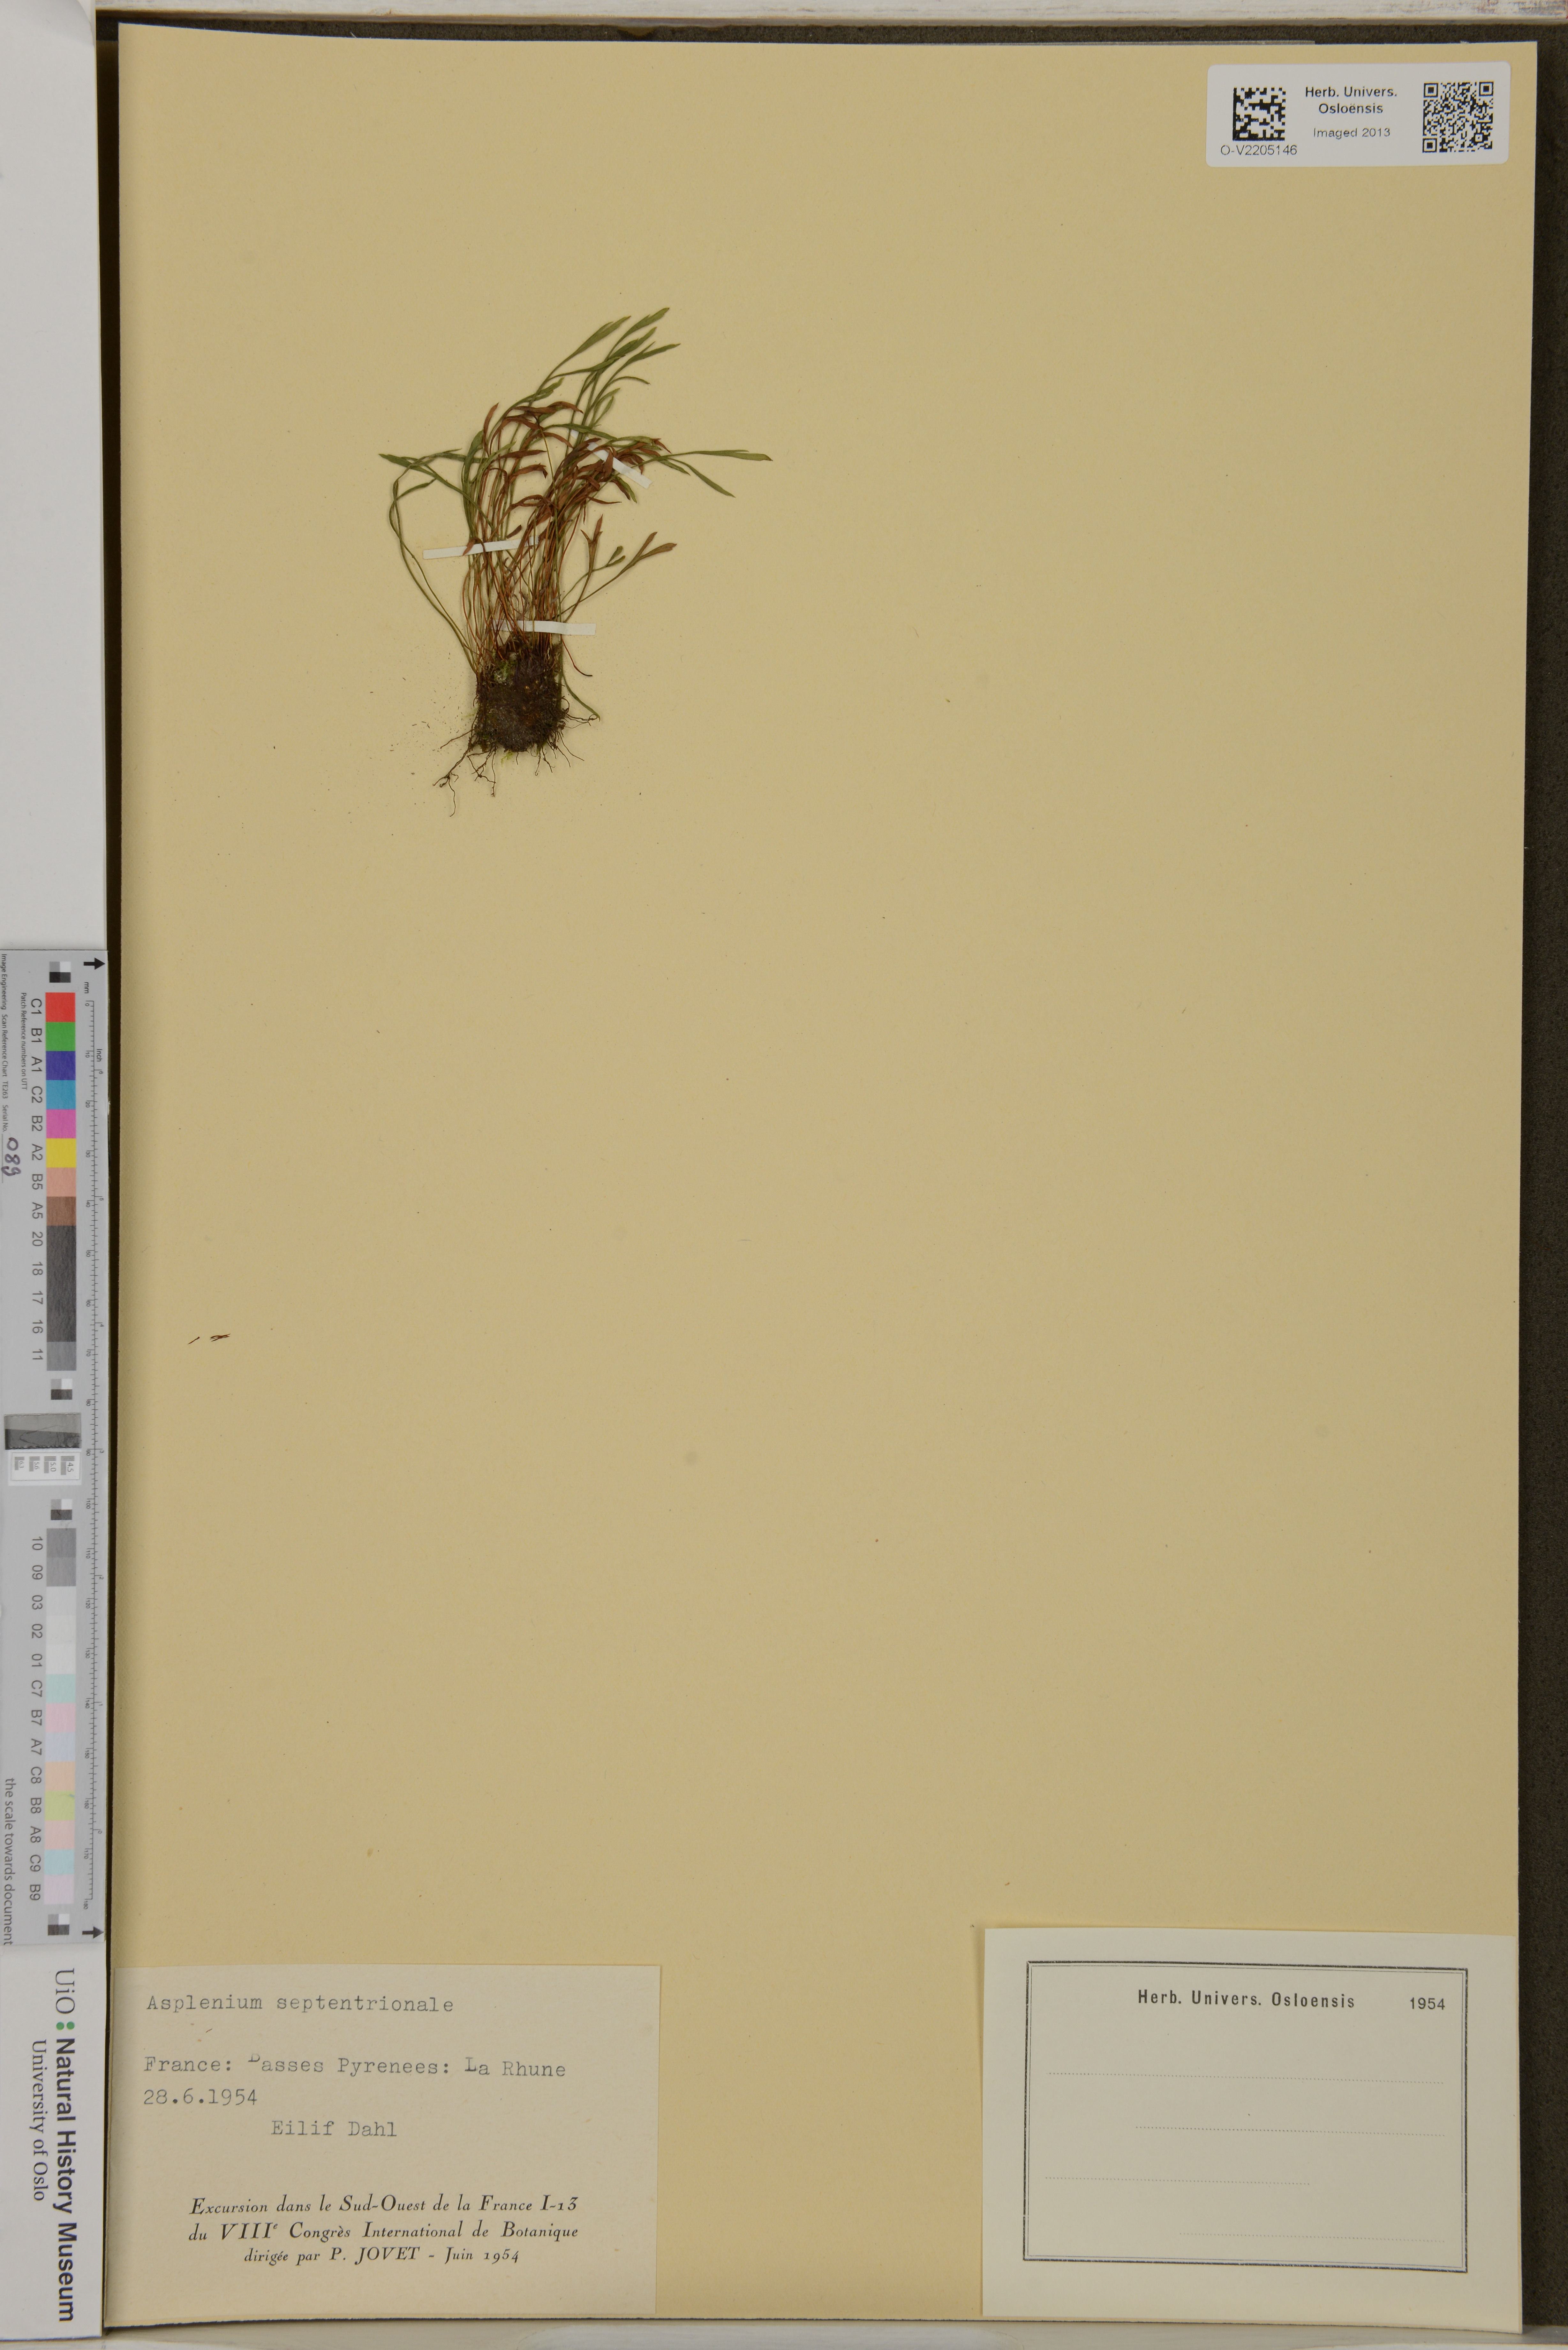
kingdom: Plantae
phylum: Tracheophyta
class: Polypodiopsida
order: Polypodiales
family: Aspleniaceae
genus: Asplenium
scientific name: Asplenium septentrionale
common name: Forked spleenwort
